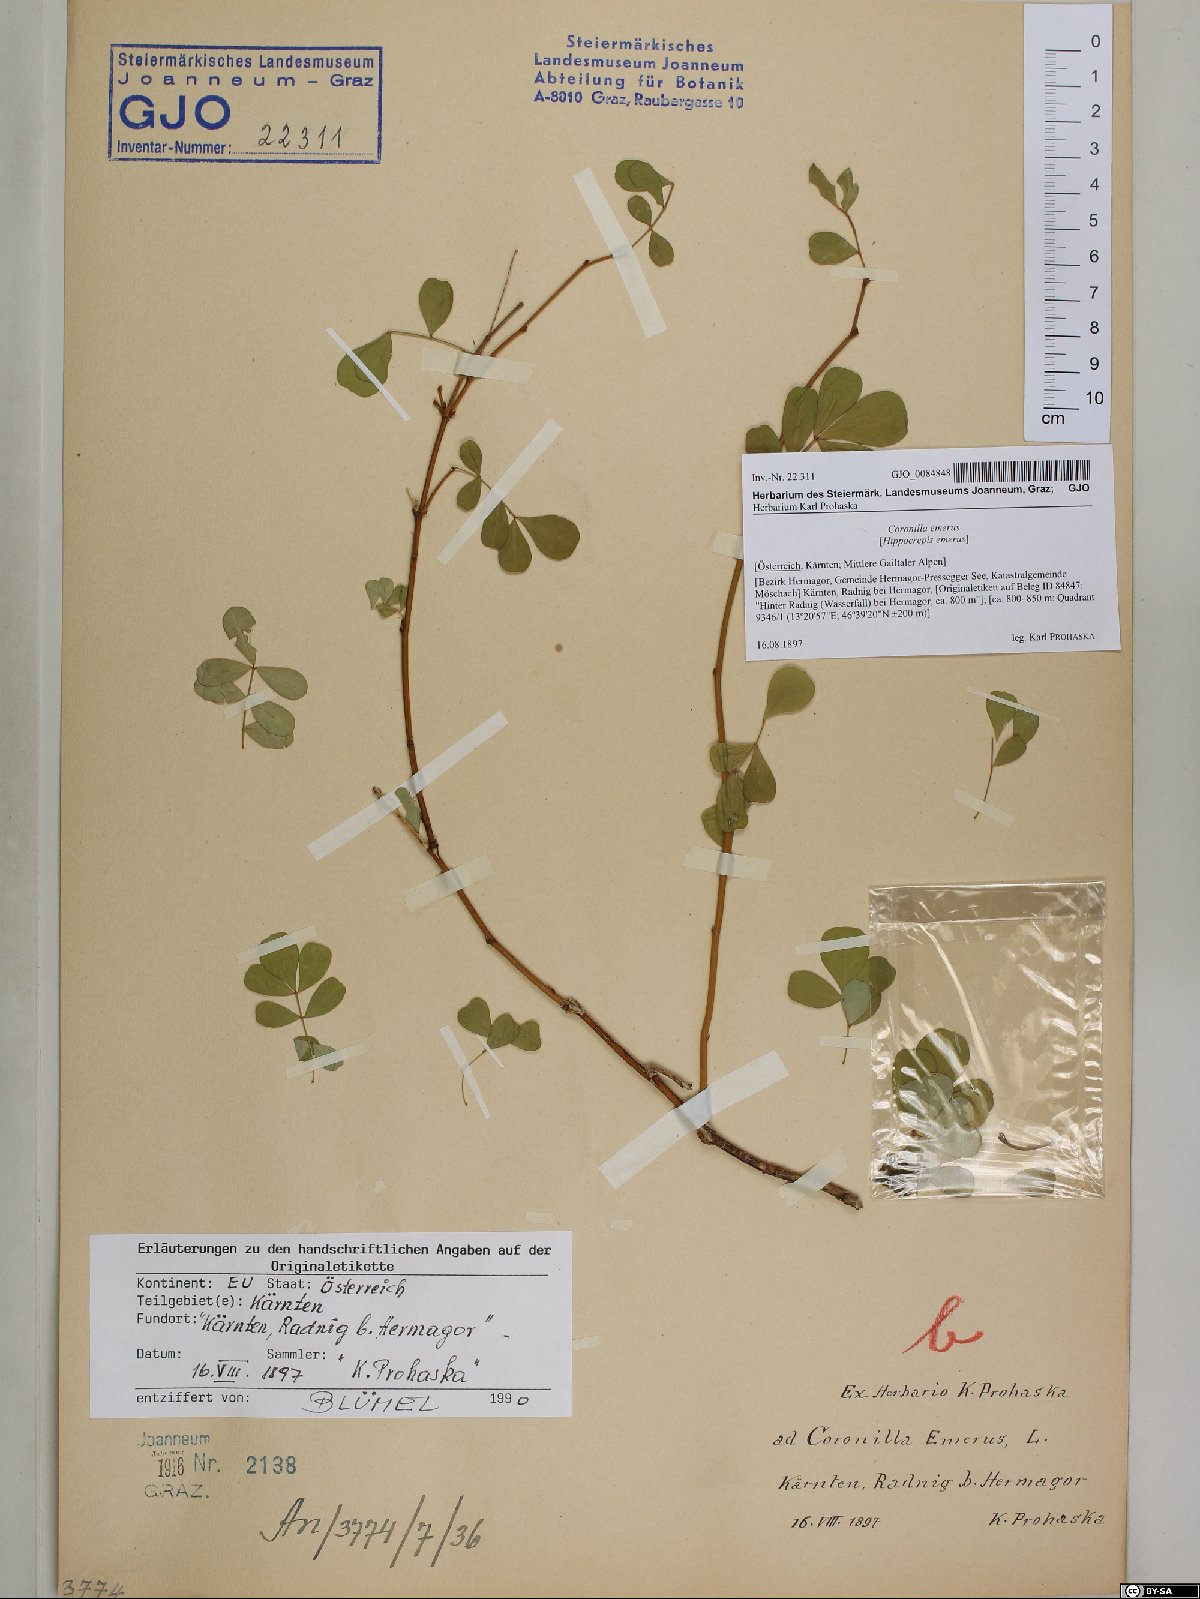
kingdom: Plantae
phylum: Tracheophyta
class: Magnoliopsida
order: Fabales
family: Fabaceae
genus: Hippocrepis
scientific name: Hippocrepis emerus
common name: Scorpion senna
